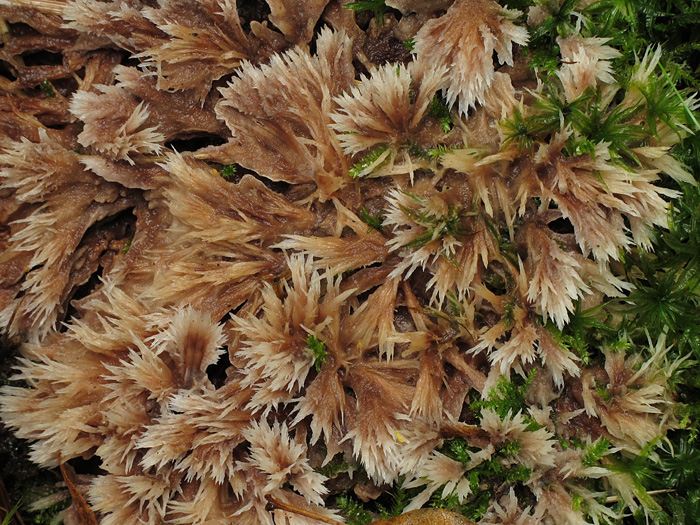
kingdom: Fungi
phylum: Basidiomycota
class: Agaricomycetes
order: Thelephorales
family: Thelephoraceae
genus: Thelephora
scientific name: Thelephora penicillata
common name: fladtrådt frynsesvamp
